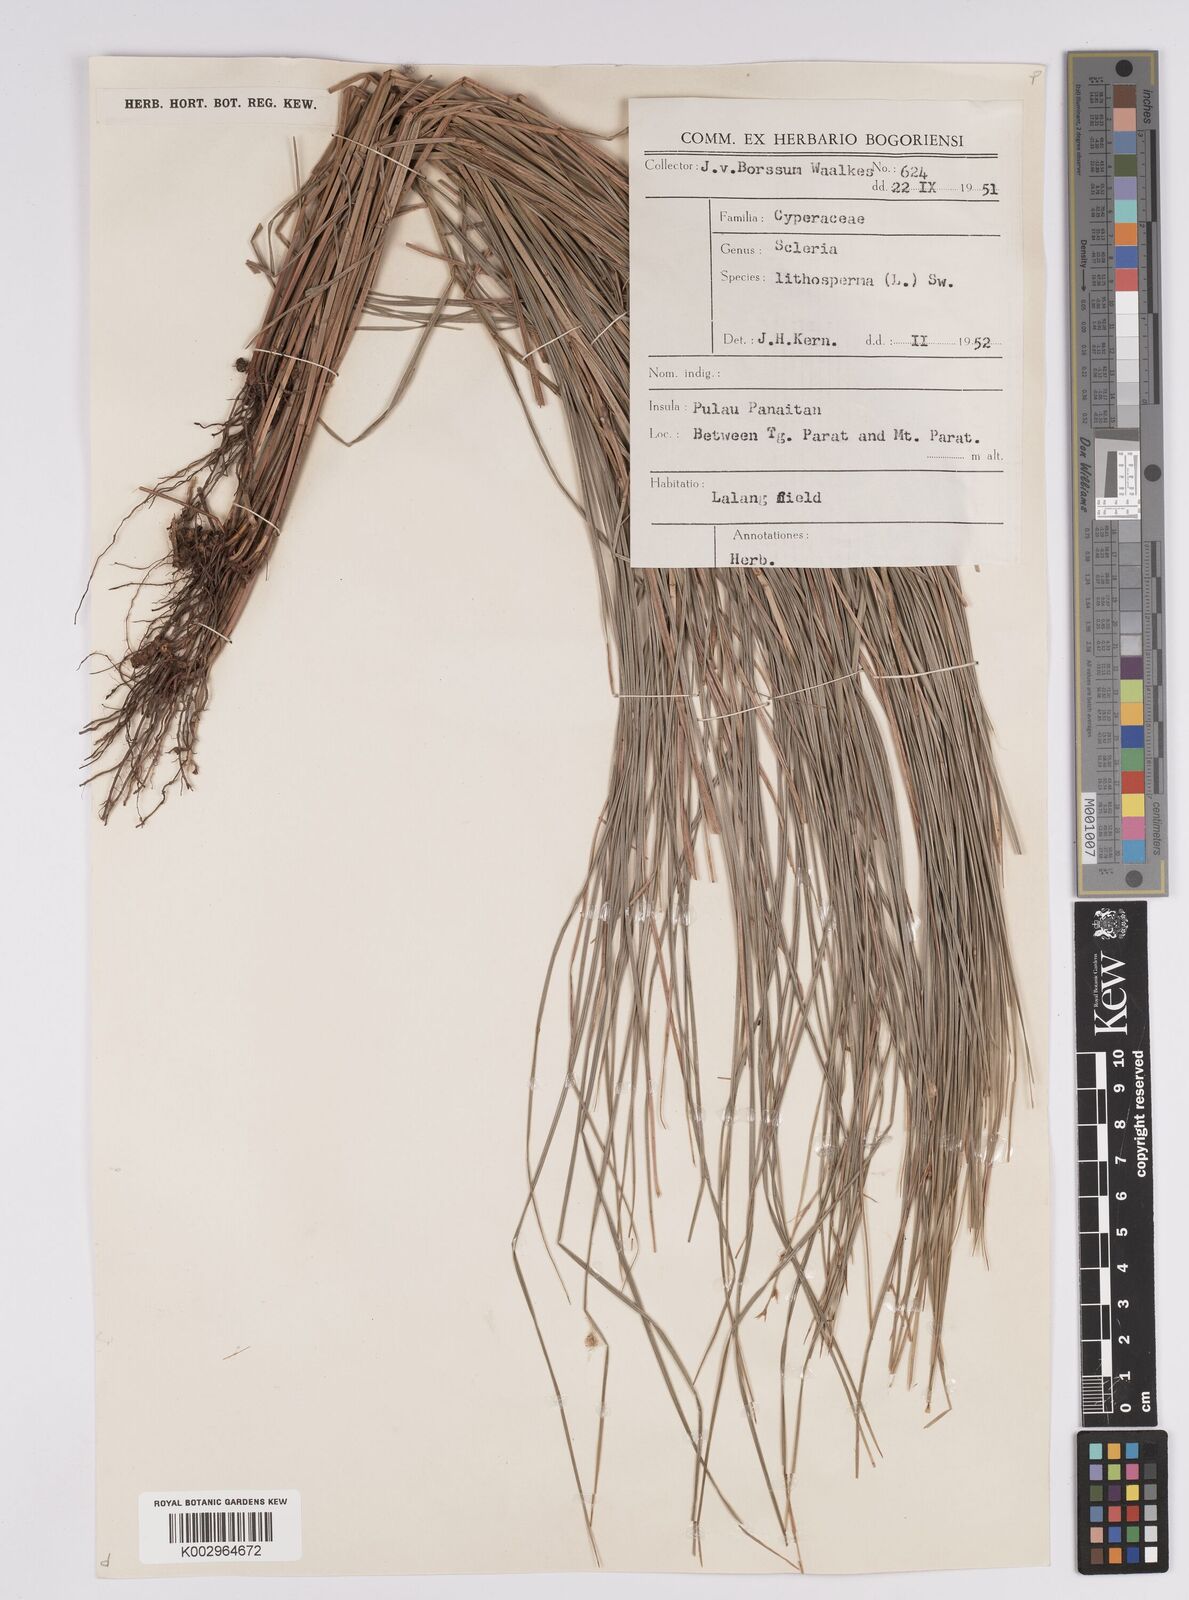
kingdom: Plantae
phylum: Tracheophyta
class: Liliopsida
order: Poales
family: Cyperaceae
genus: Scleria
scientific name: Scleria lithosperma
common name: Florida keys nut-rush
